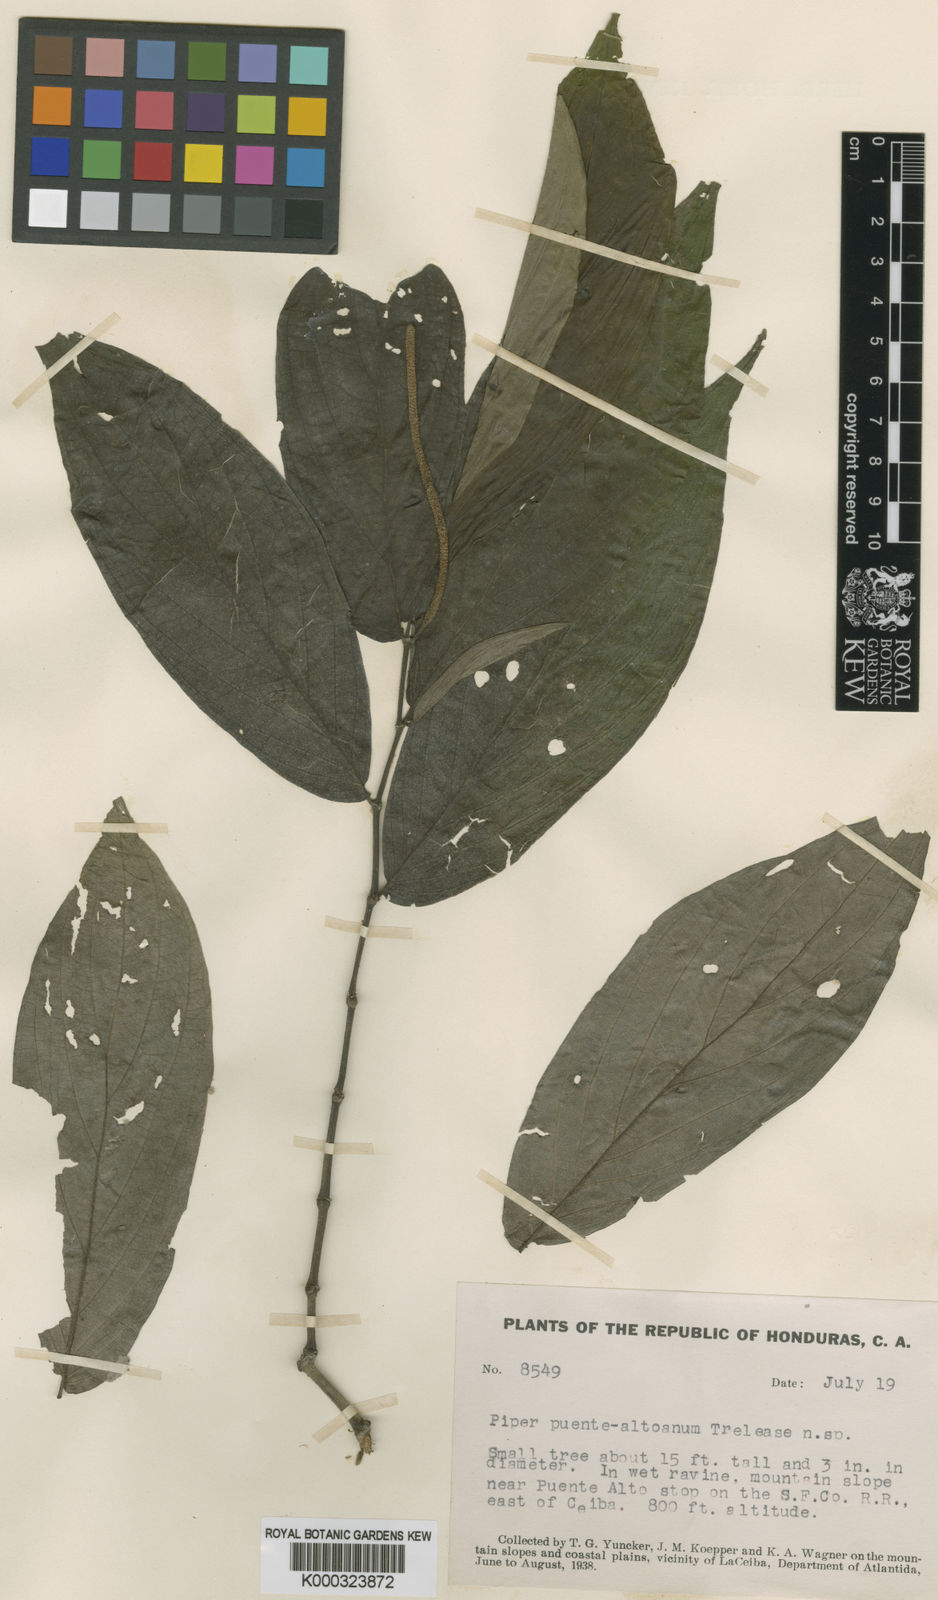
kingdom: Plantae
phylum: Tracheophyta
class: Magnoliopsida
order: Piperales
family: Piperaceae
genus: Piper
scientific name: Piper puente-altoanum
